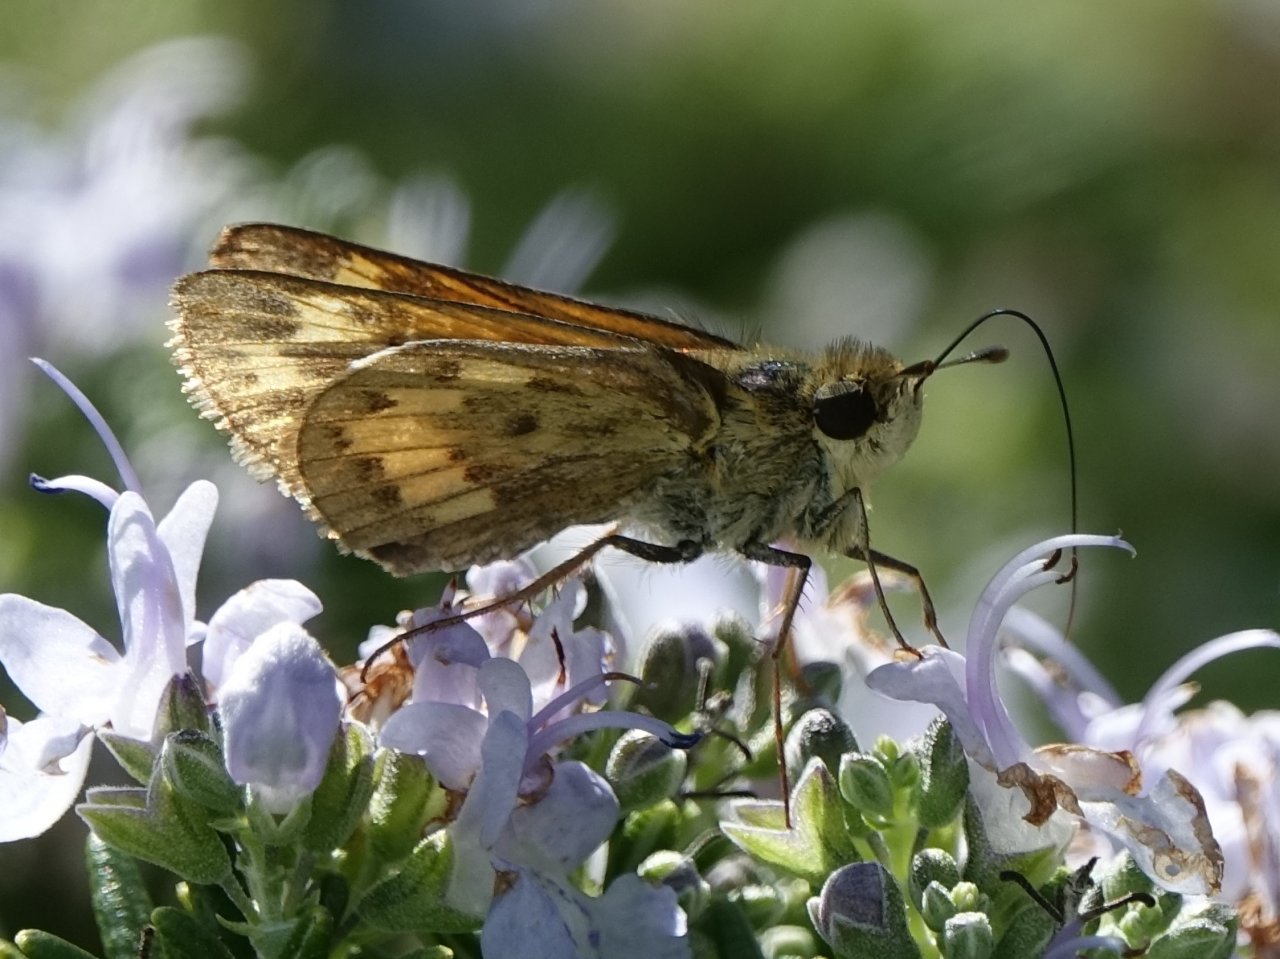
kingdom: Animalia
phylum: Arthropoda
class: Insecta
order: Lepidoptera
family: Hesperiidae
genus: Hylephila
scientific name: Hylephila phyleus
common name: Fiery Skipper
